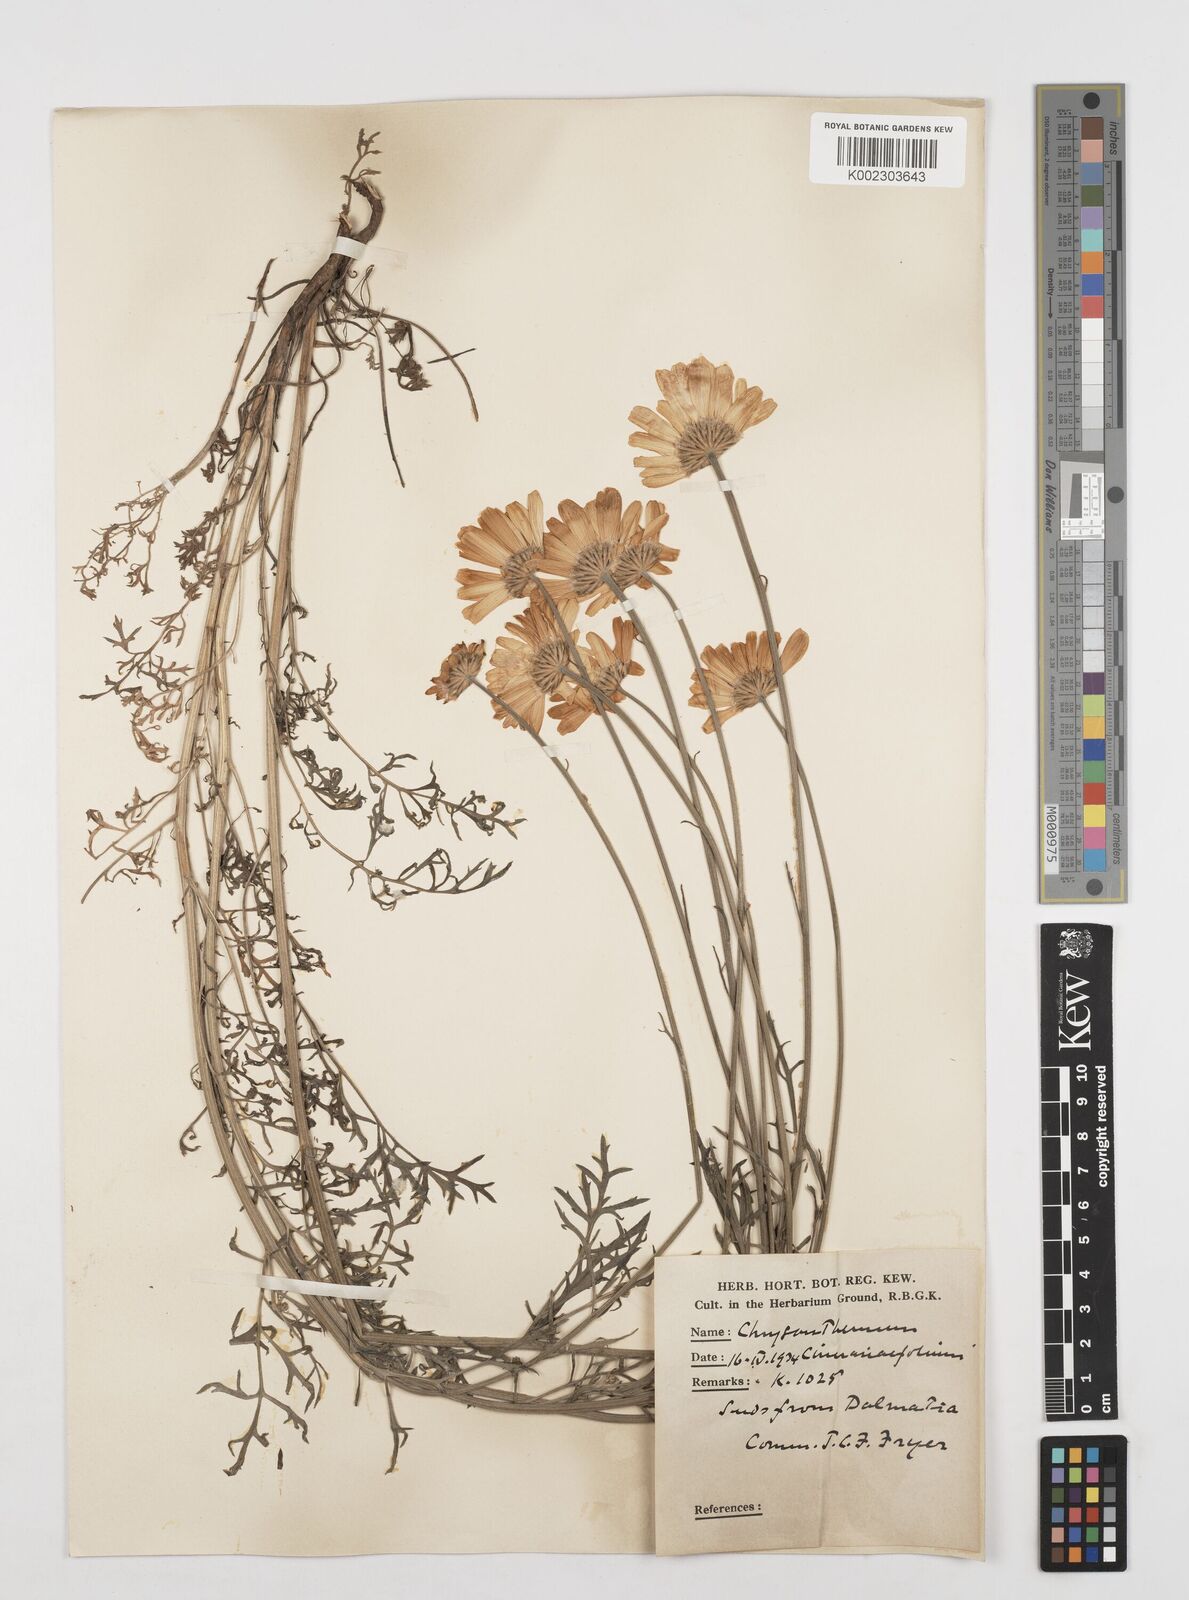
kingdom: Plantae
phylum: Tracheophyta
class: Magnoliopsida
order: Asterales
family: Asteraceae
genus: Tanacetum
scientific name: Tanacetum cinerariifolium
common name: Dalmatian pyrethrum
